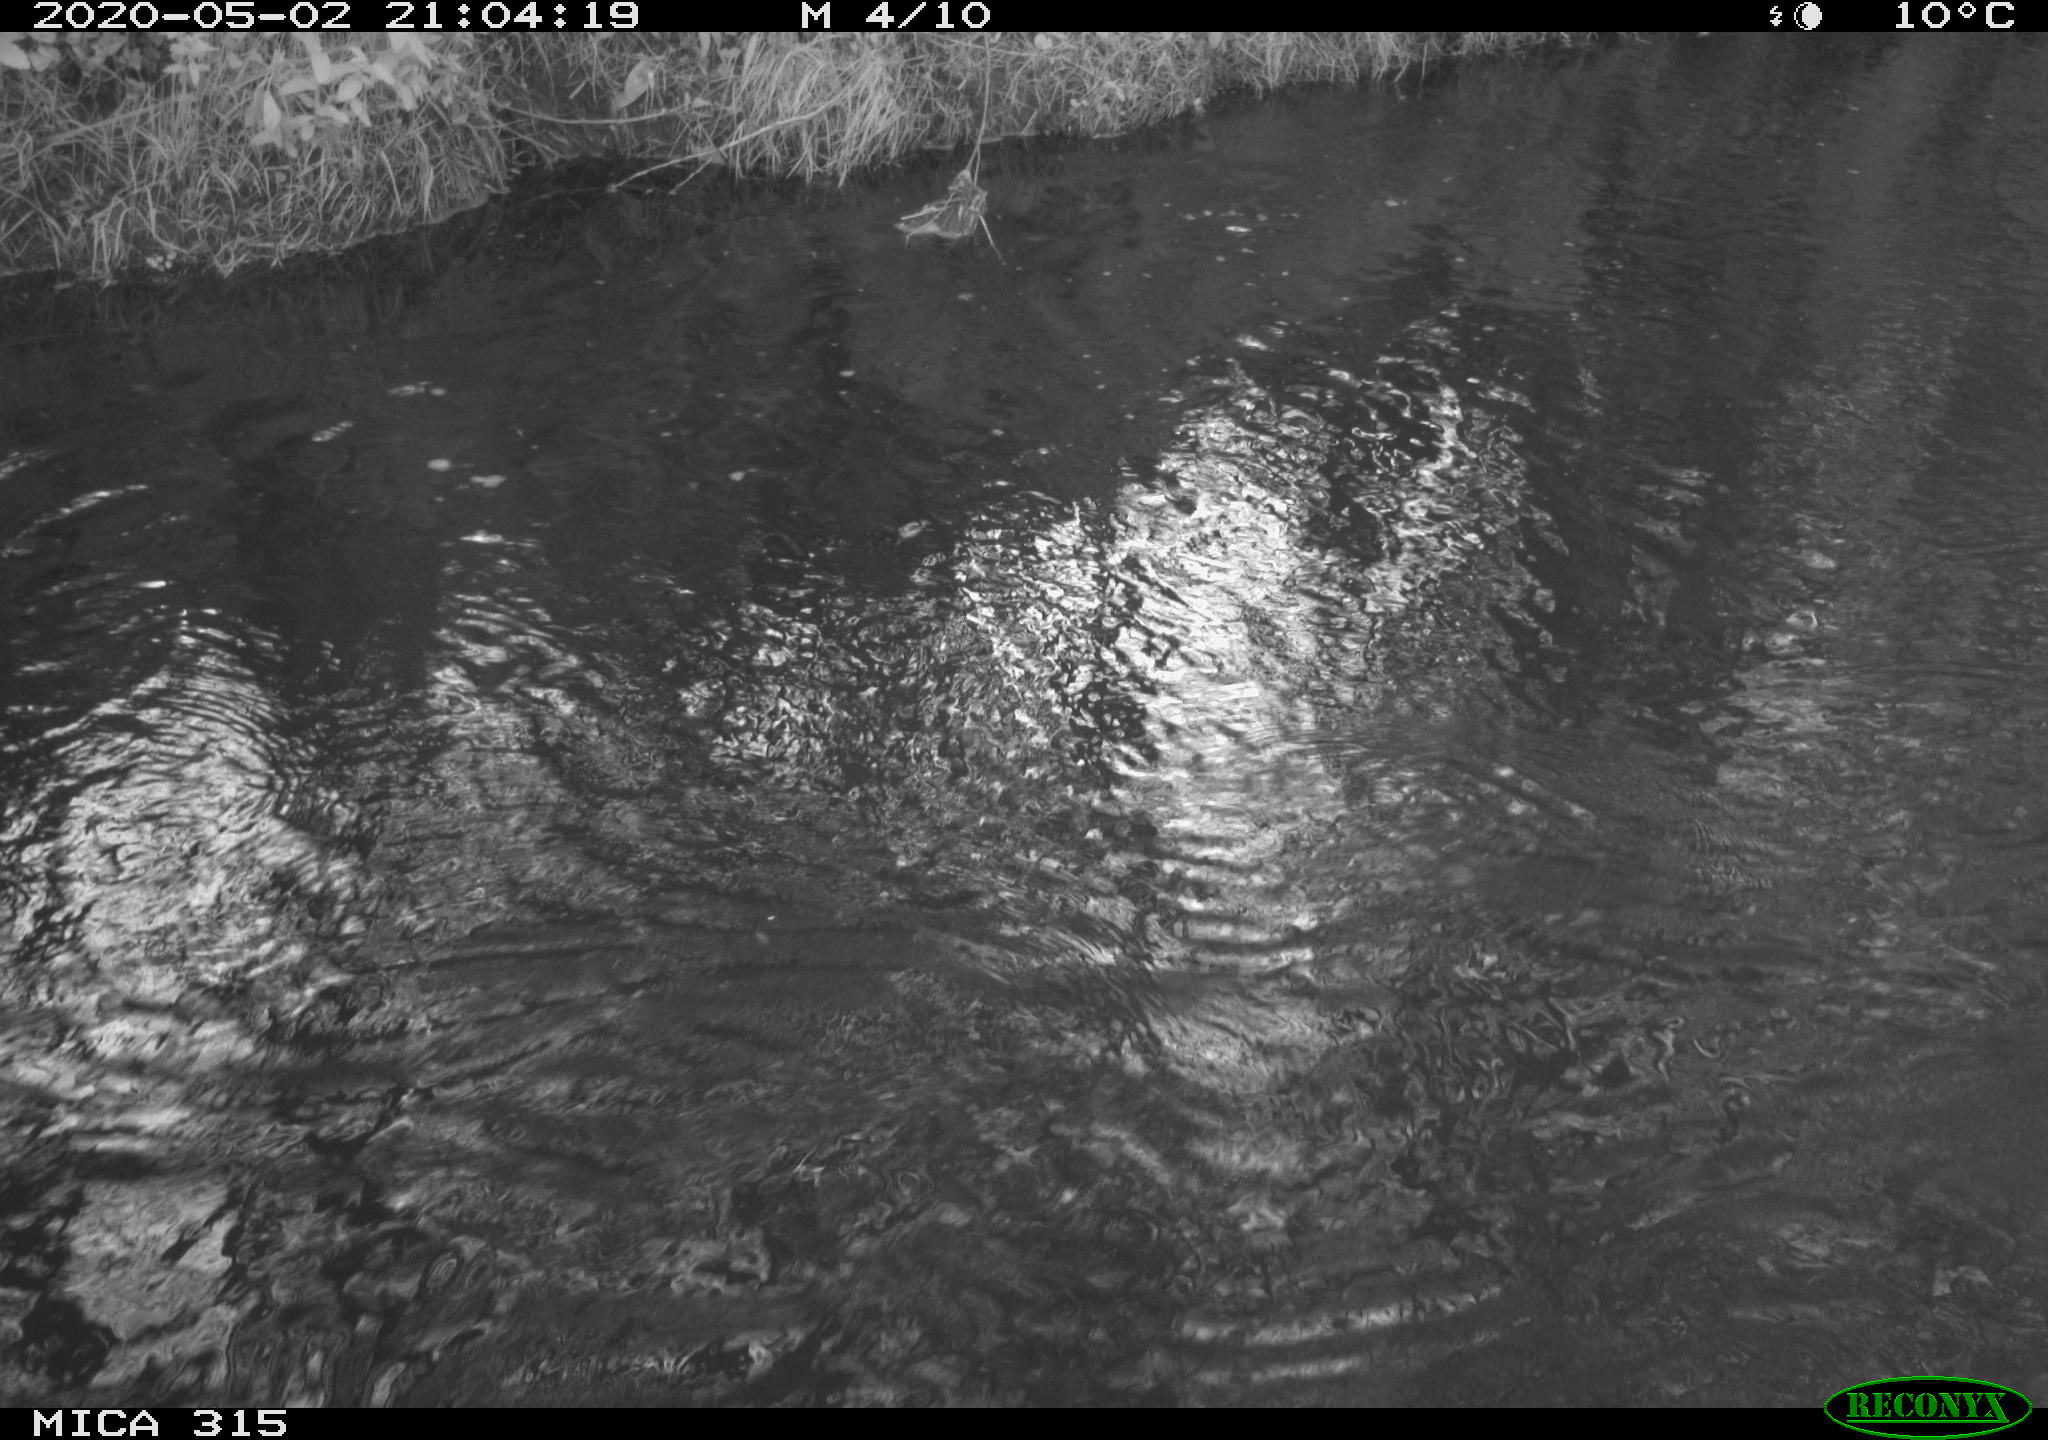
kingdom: Animalia
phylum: Chordata
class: Aves
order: Anseriformes
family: Anatidae
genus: Anas
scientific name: Anas platyrhynchos
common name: Mallard
